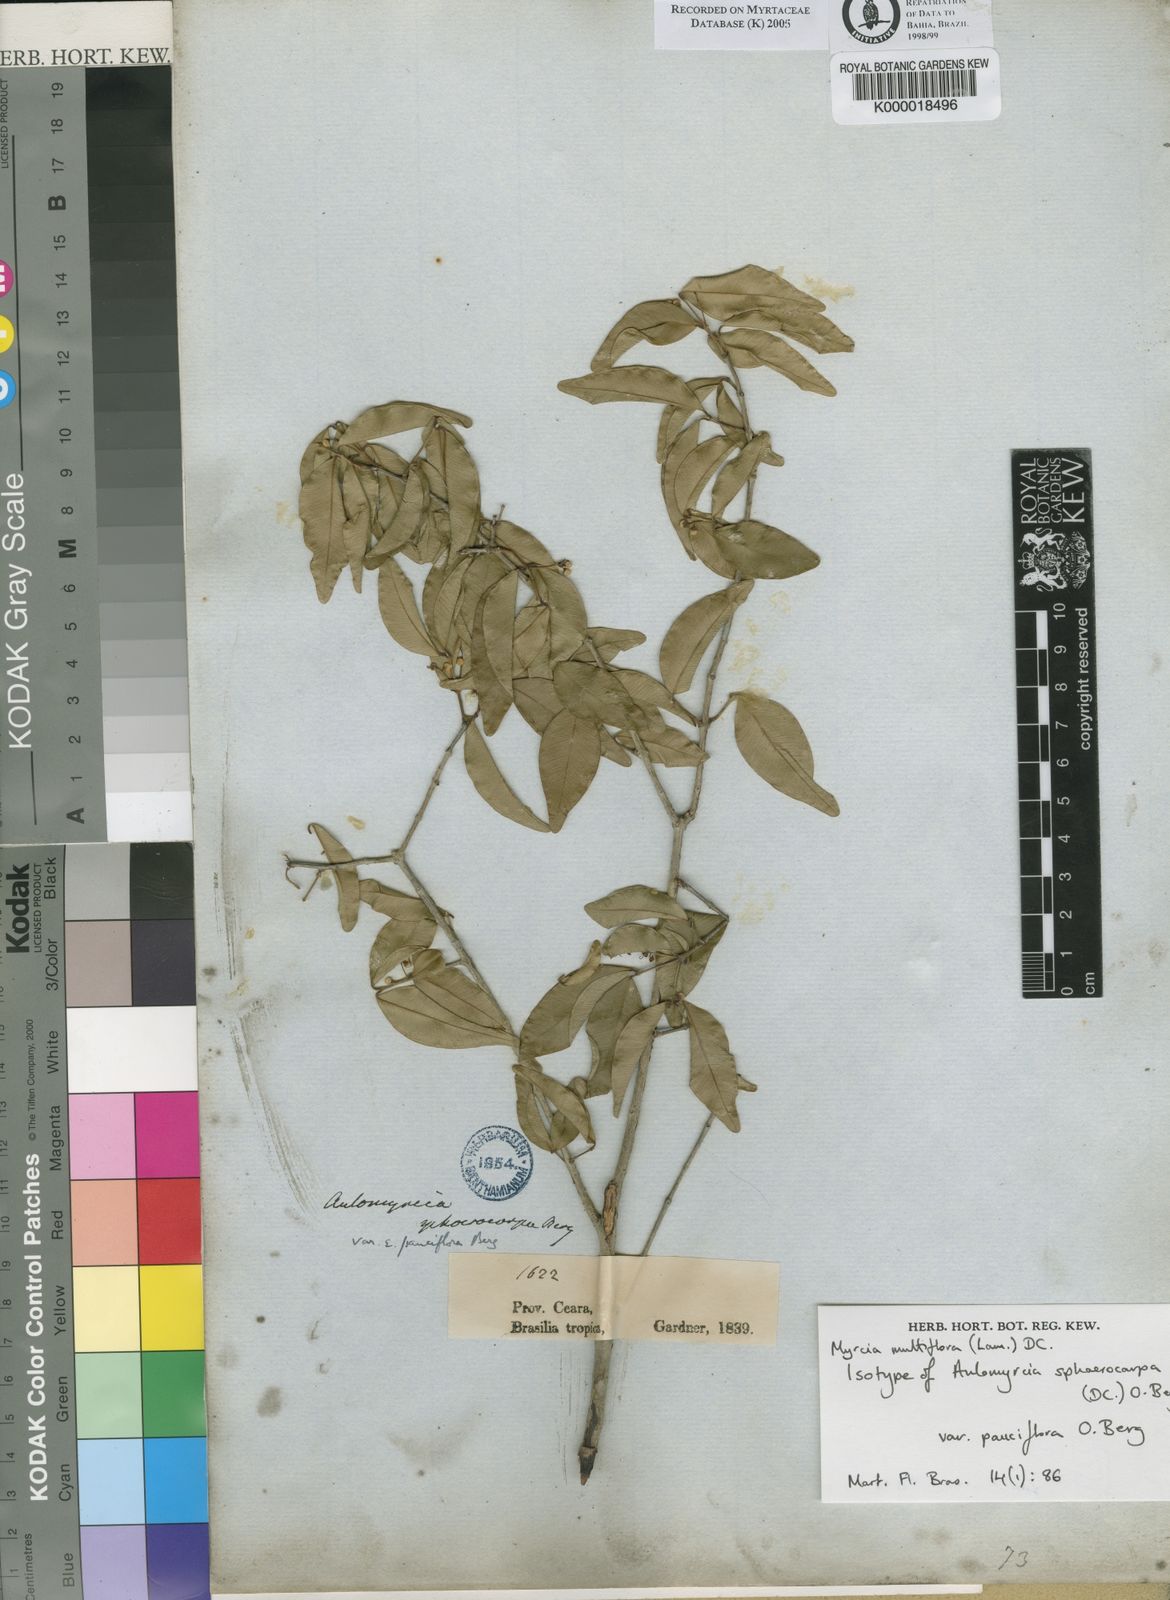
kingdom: Plantae
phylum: Tracheophyta
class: Magnoliopsida
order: Myrtales
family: Myrtaceae
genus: Myrcia
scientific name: Myrcia multiflora
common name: Pedra hume
